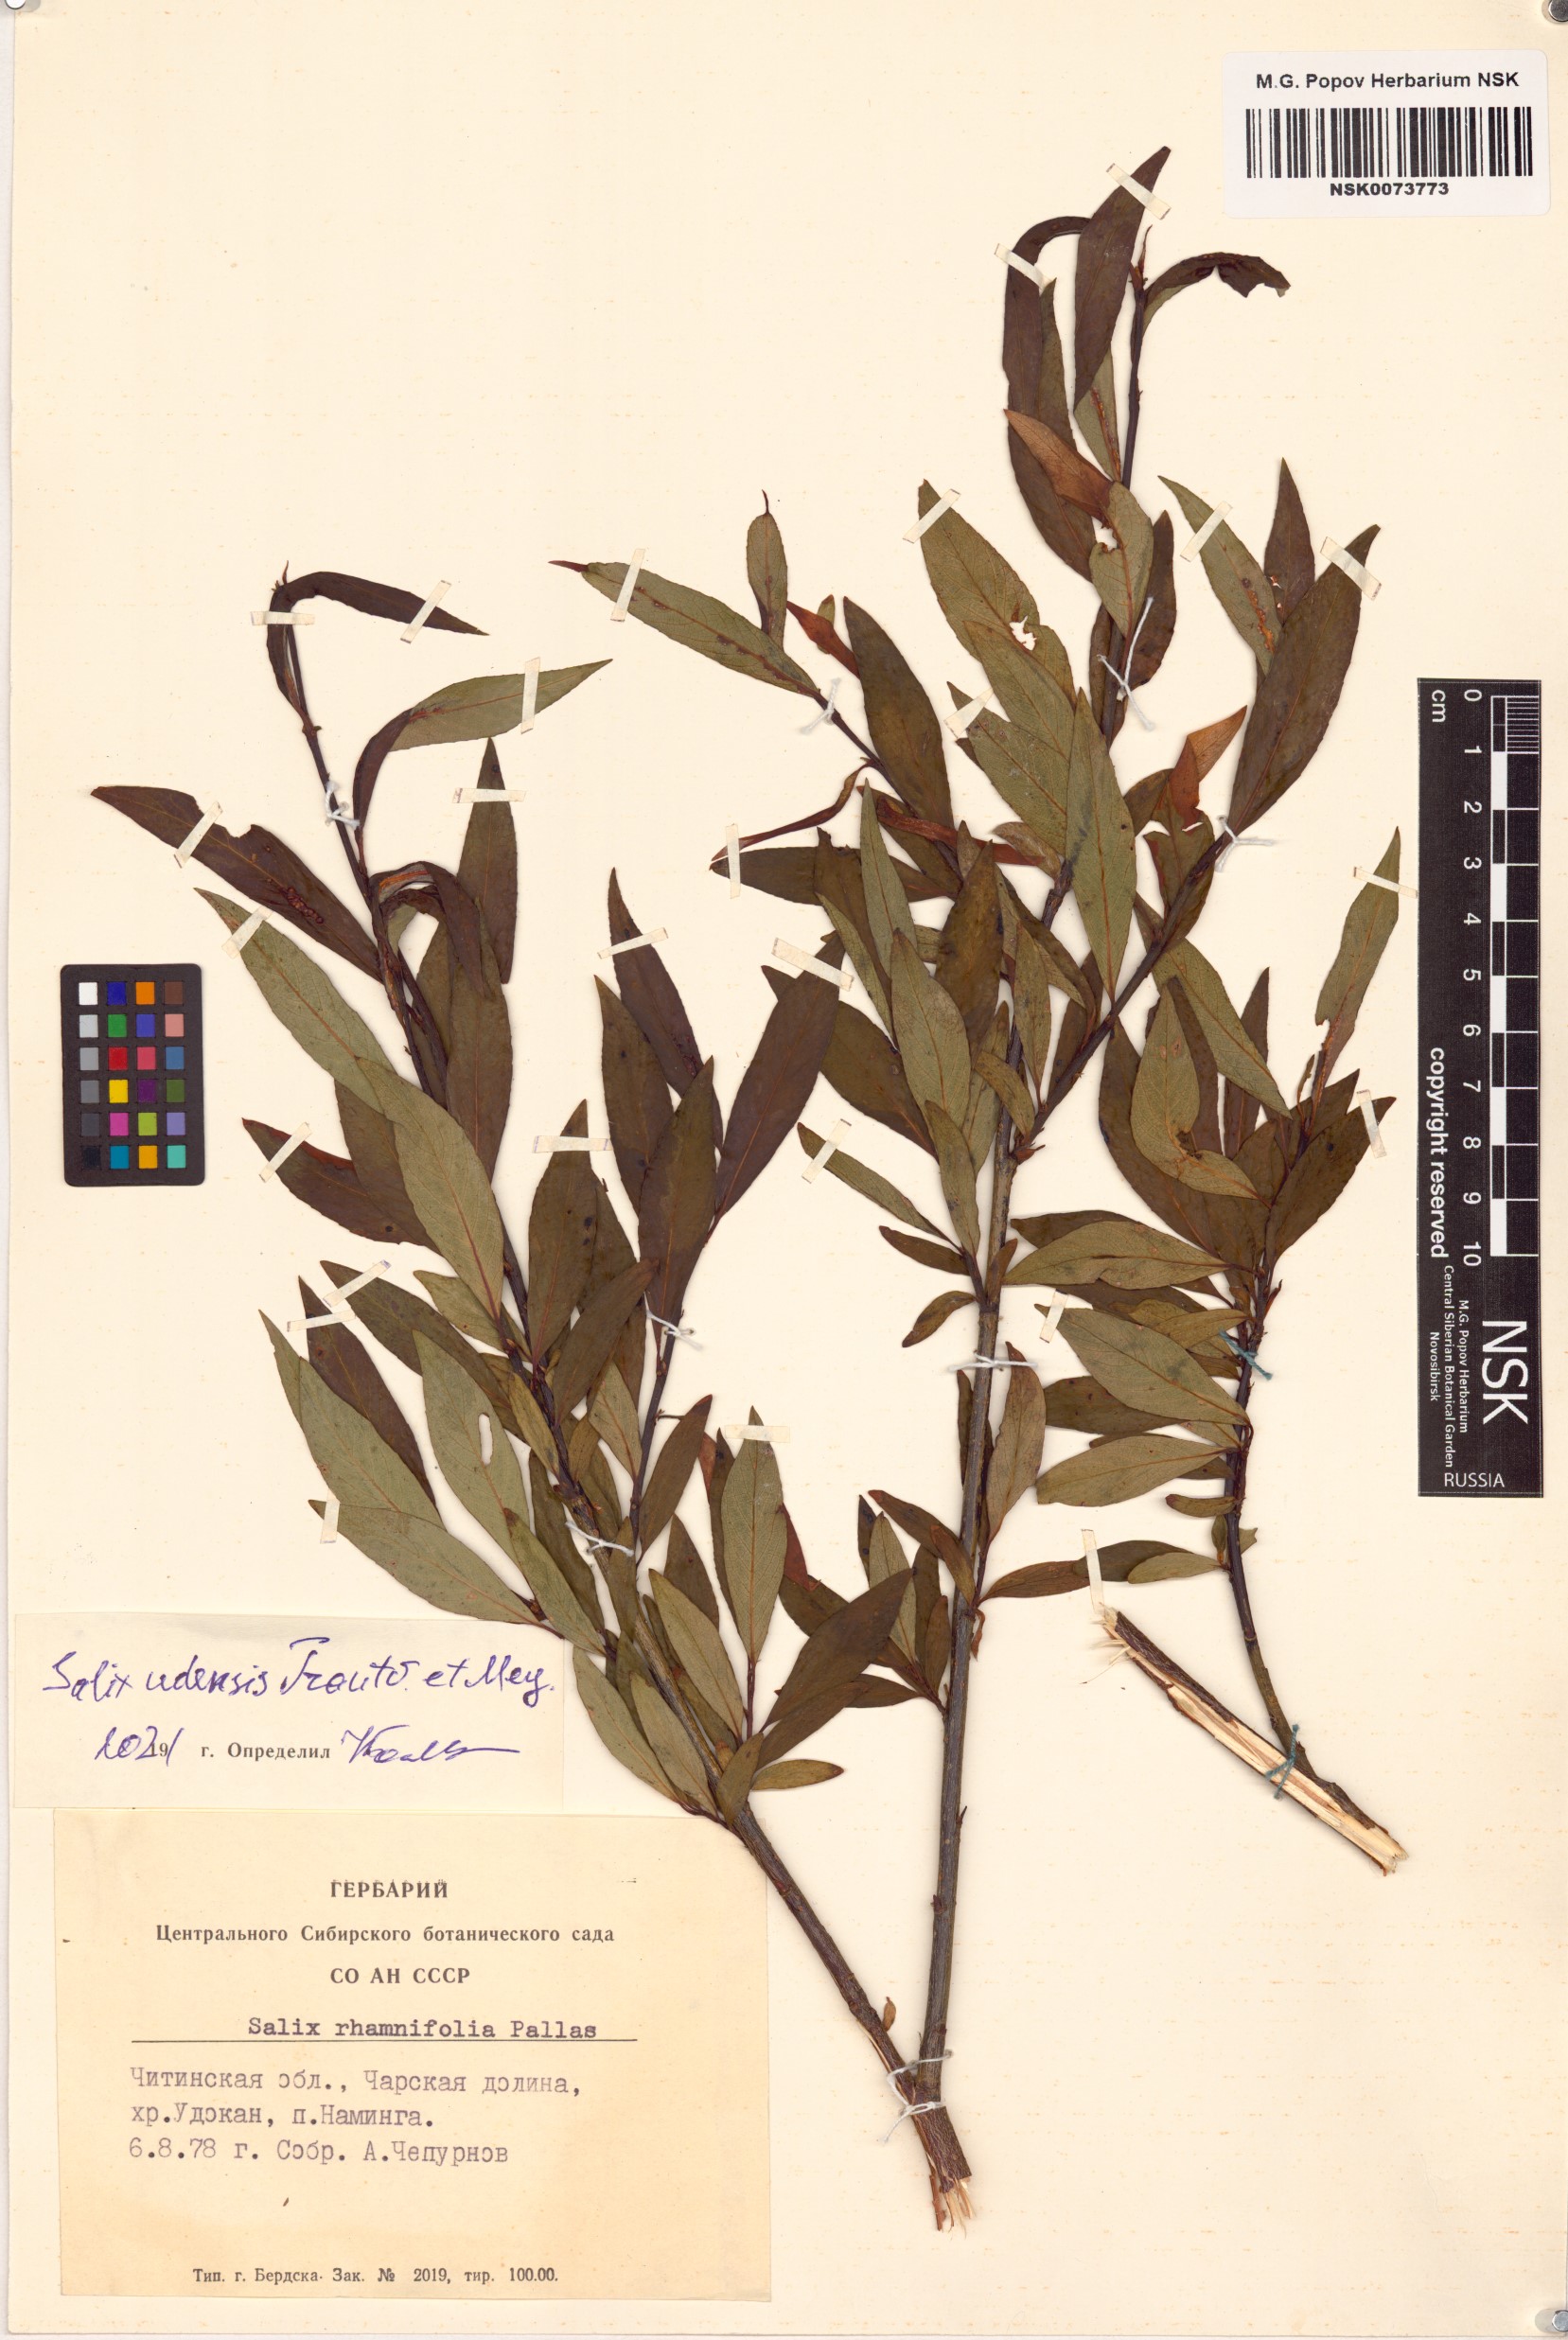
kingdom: Plantae
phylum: Tracheophyta
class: Magnoliopsida
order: Malpighiales
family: Salicaceae
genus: Salix
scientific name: Salix udensis
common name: Sachalin willow
